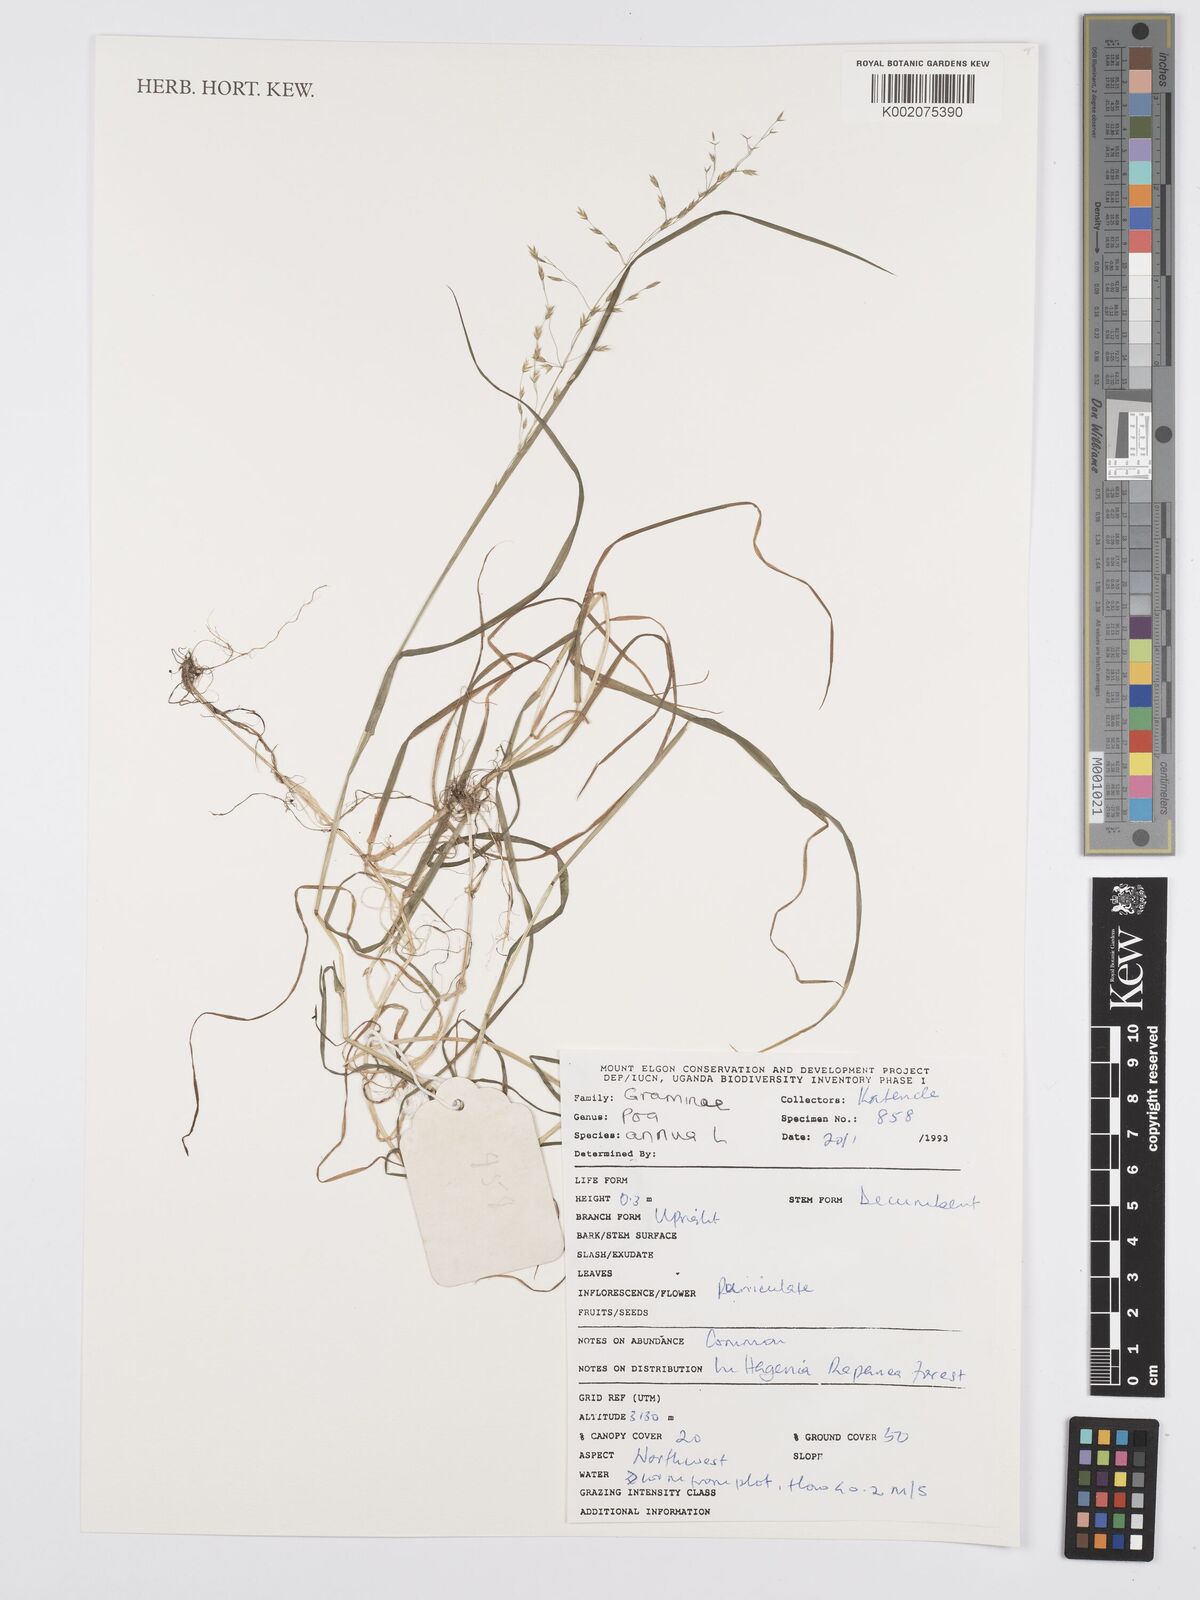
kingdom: Plantae
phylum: Tracheophyta
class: Liliopsida
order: Poales
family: Poaceae
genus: Poa
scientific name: Poa annua
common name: Annual bluegrass
